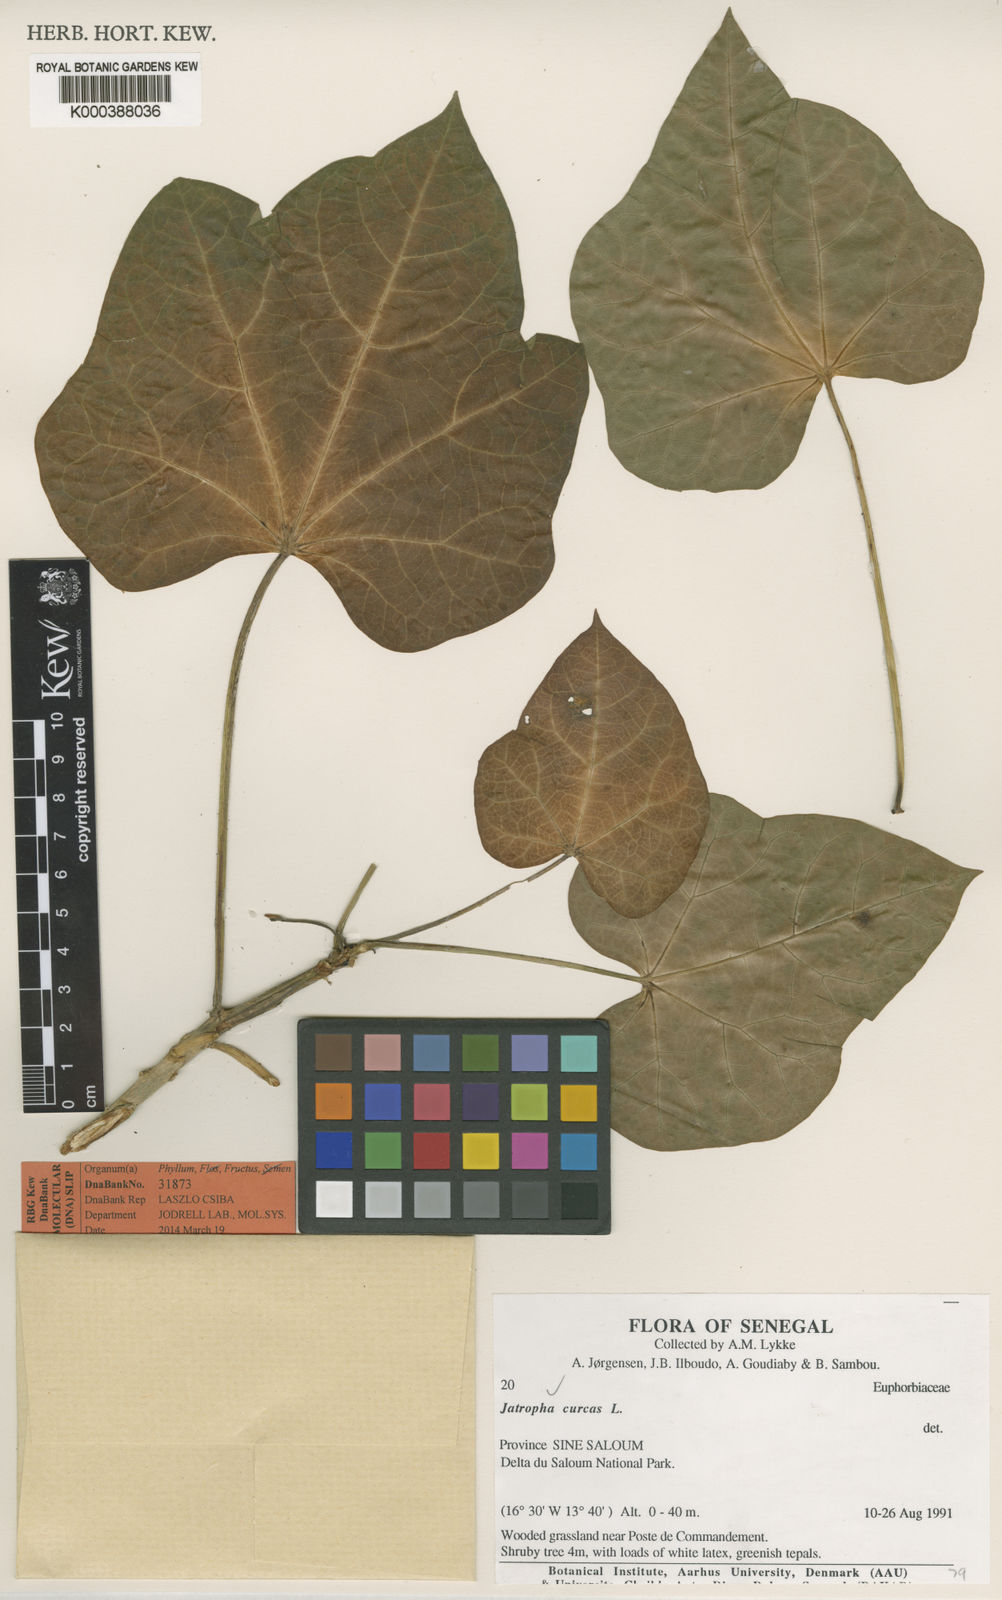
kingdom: Plantae
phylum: Tracheophyta
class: Magnoliopsida
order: Malpighiales
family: Euphorbiaceae
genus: Jatropha
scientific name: Jatropha curcas
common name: Barbados nut
